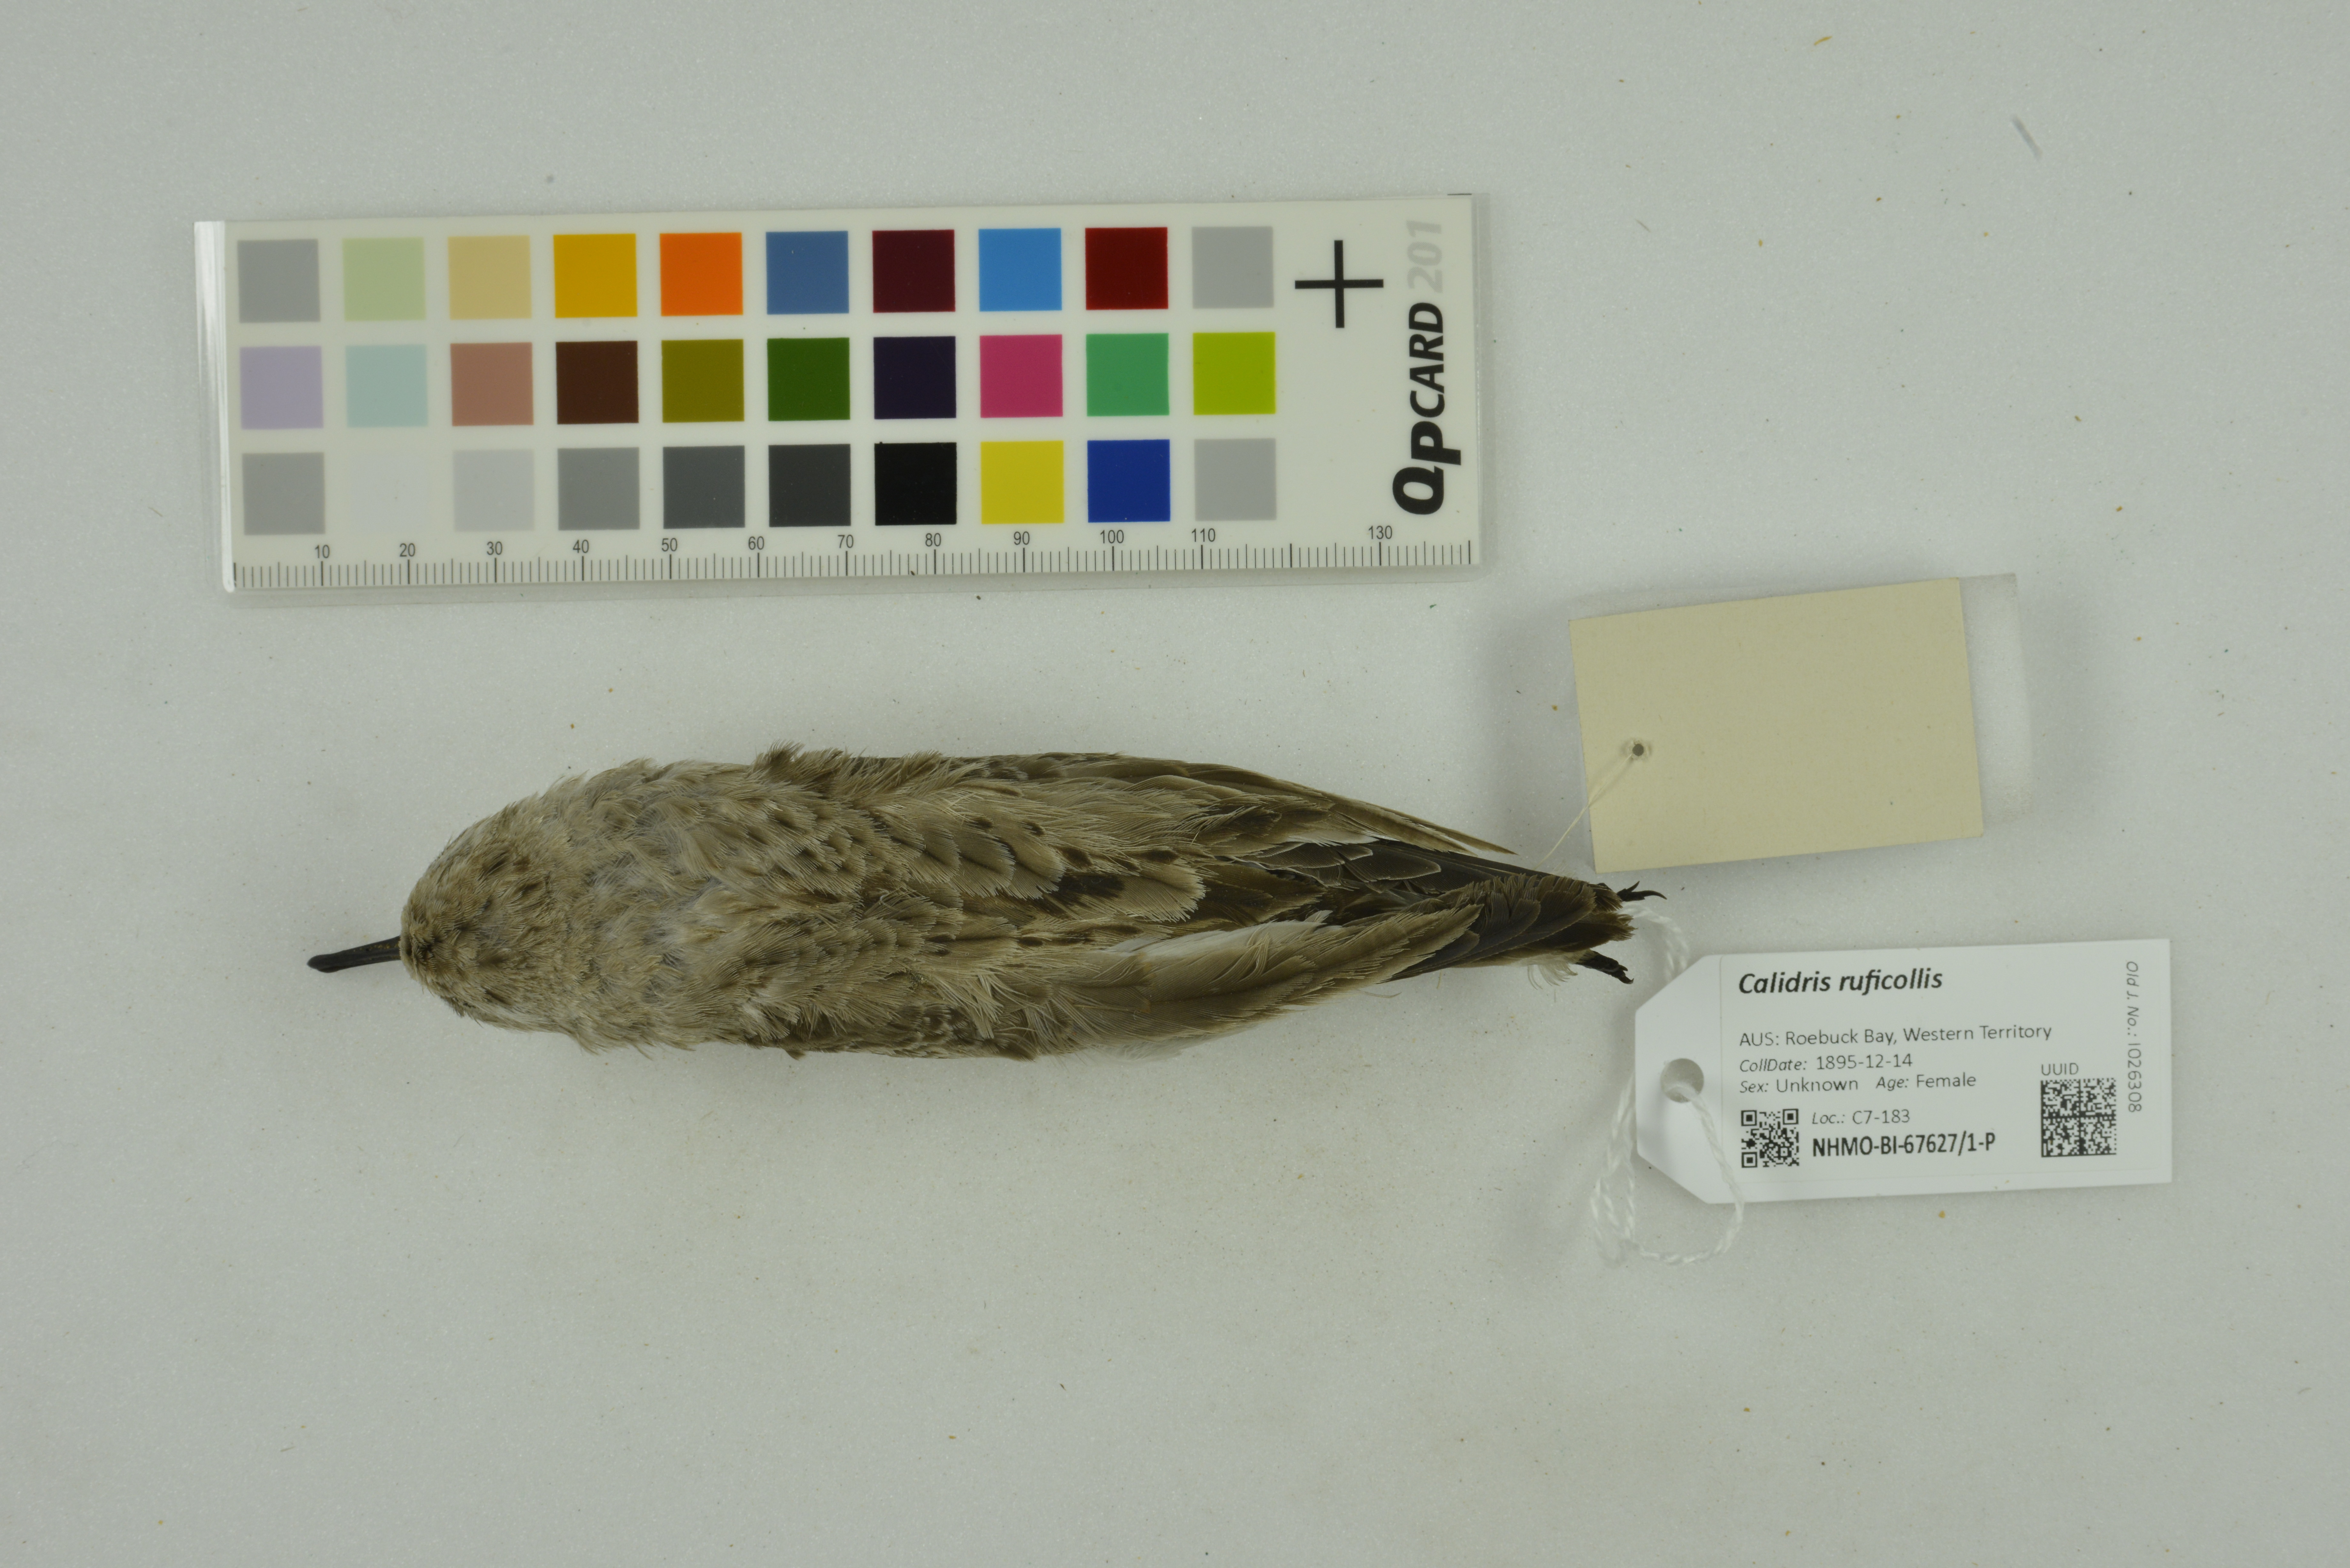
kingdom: Animalia
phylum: Chordata
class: Aves
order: Charadriiformes
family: Scolopacidae
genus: Calidris
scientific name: Calidris ruficollis
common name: Red-necked stint
